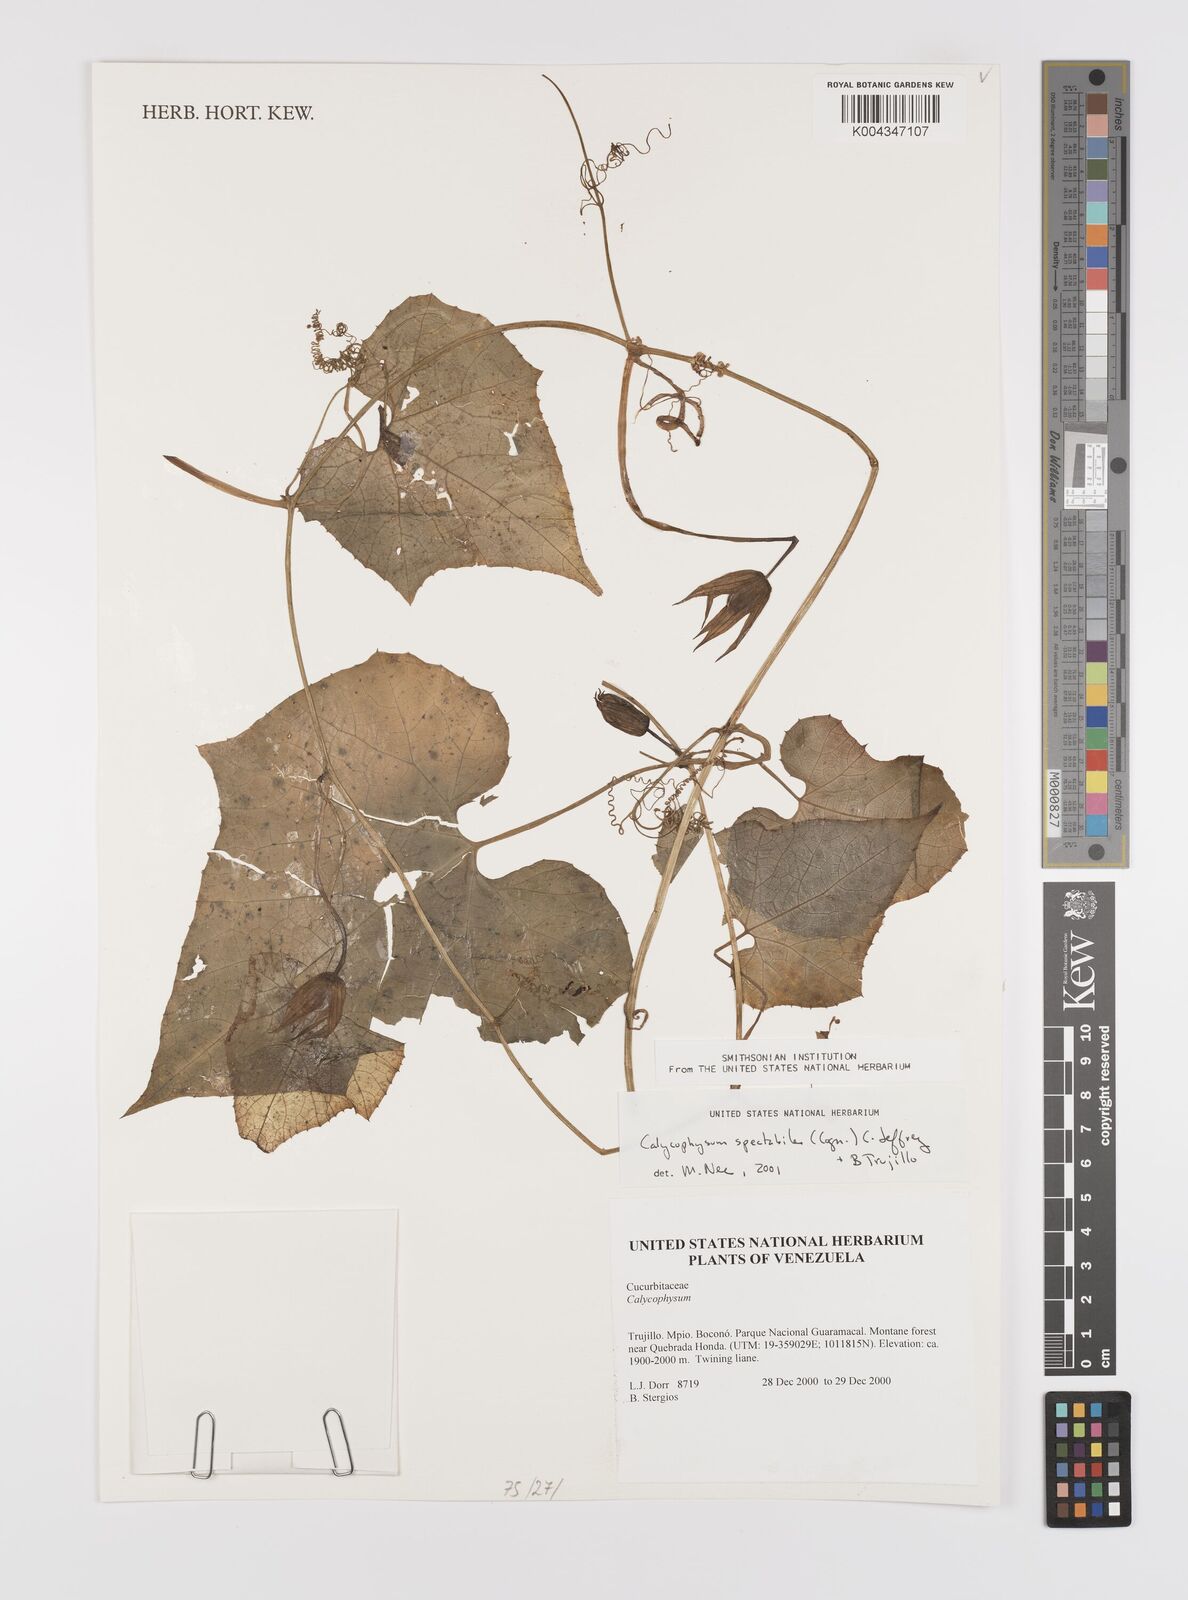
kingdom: Plantae
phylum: Tracheophyta
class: Magnoliopsida
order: Cucurbitales
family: Cucurbitaceae
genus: Calycophysum
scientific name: Calycophysum spectabile
